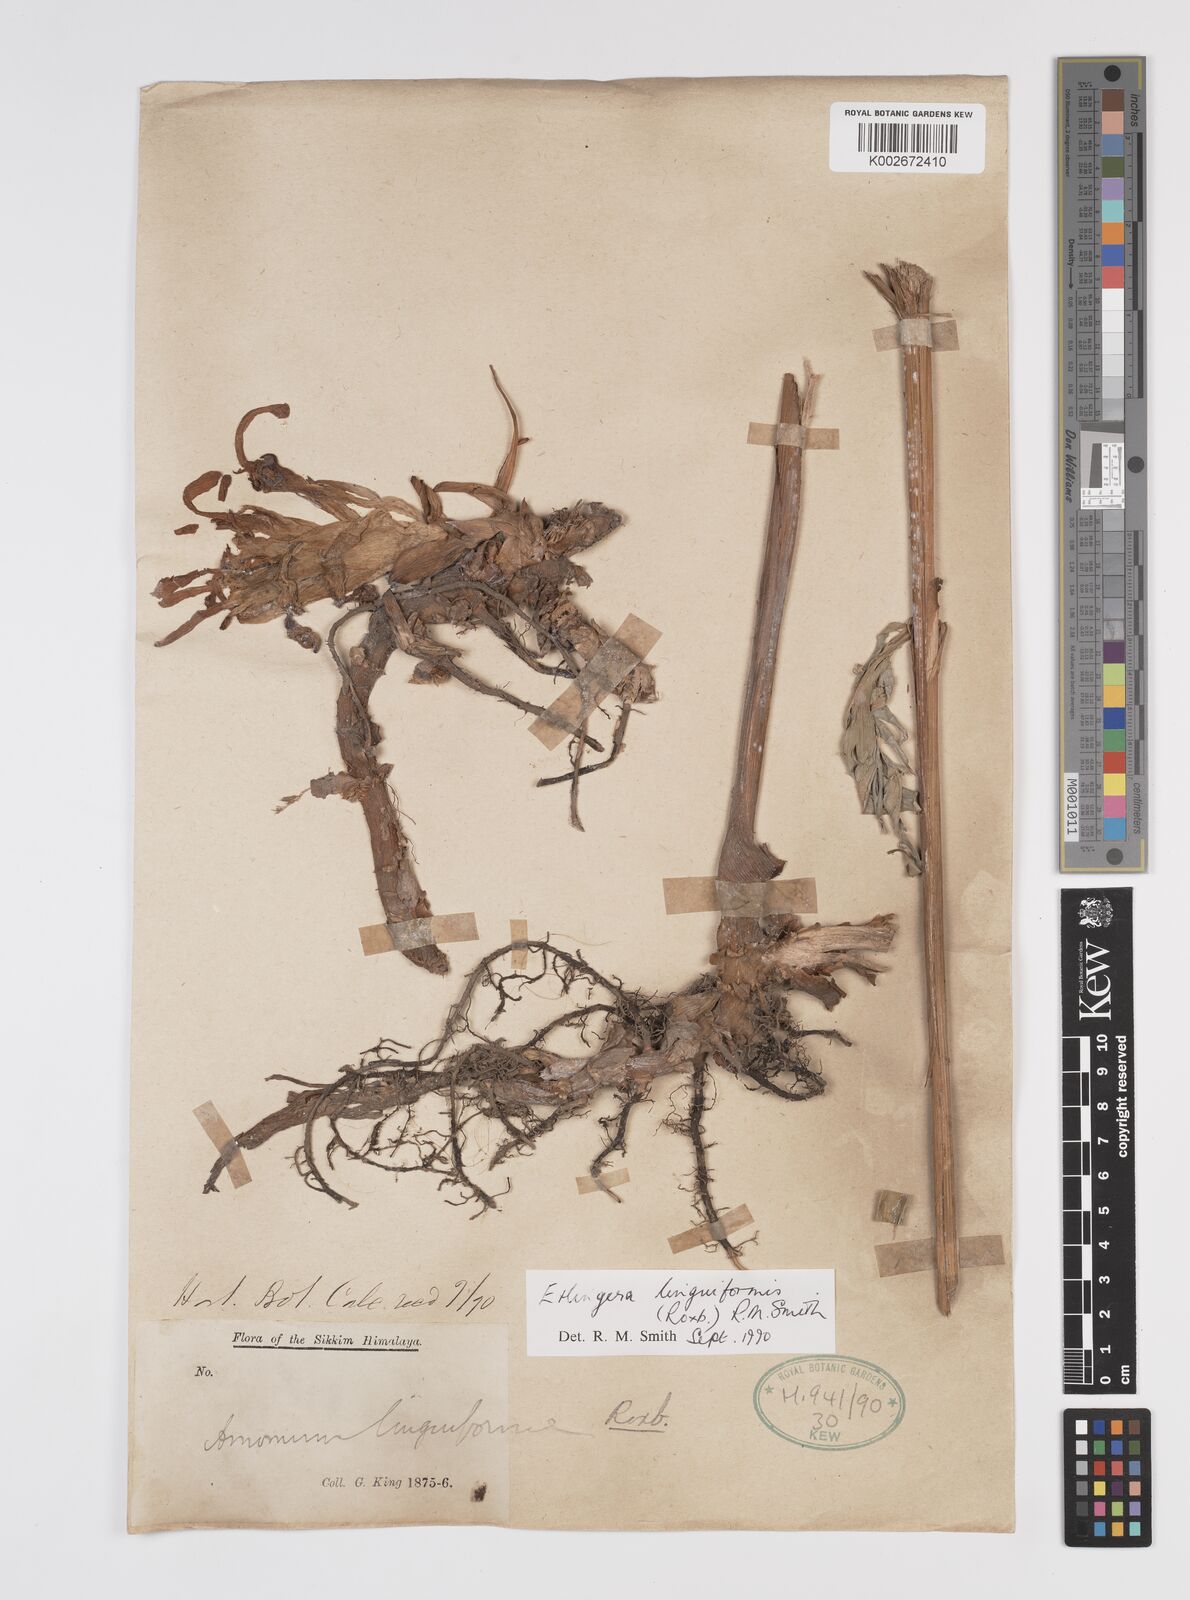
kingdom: Plantae
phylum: Tracheophyta
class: Liliopsida
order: Zingiberales
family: Zingiberaceae
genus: Etlingera
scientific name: Etlingera linguiformis
